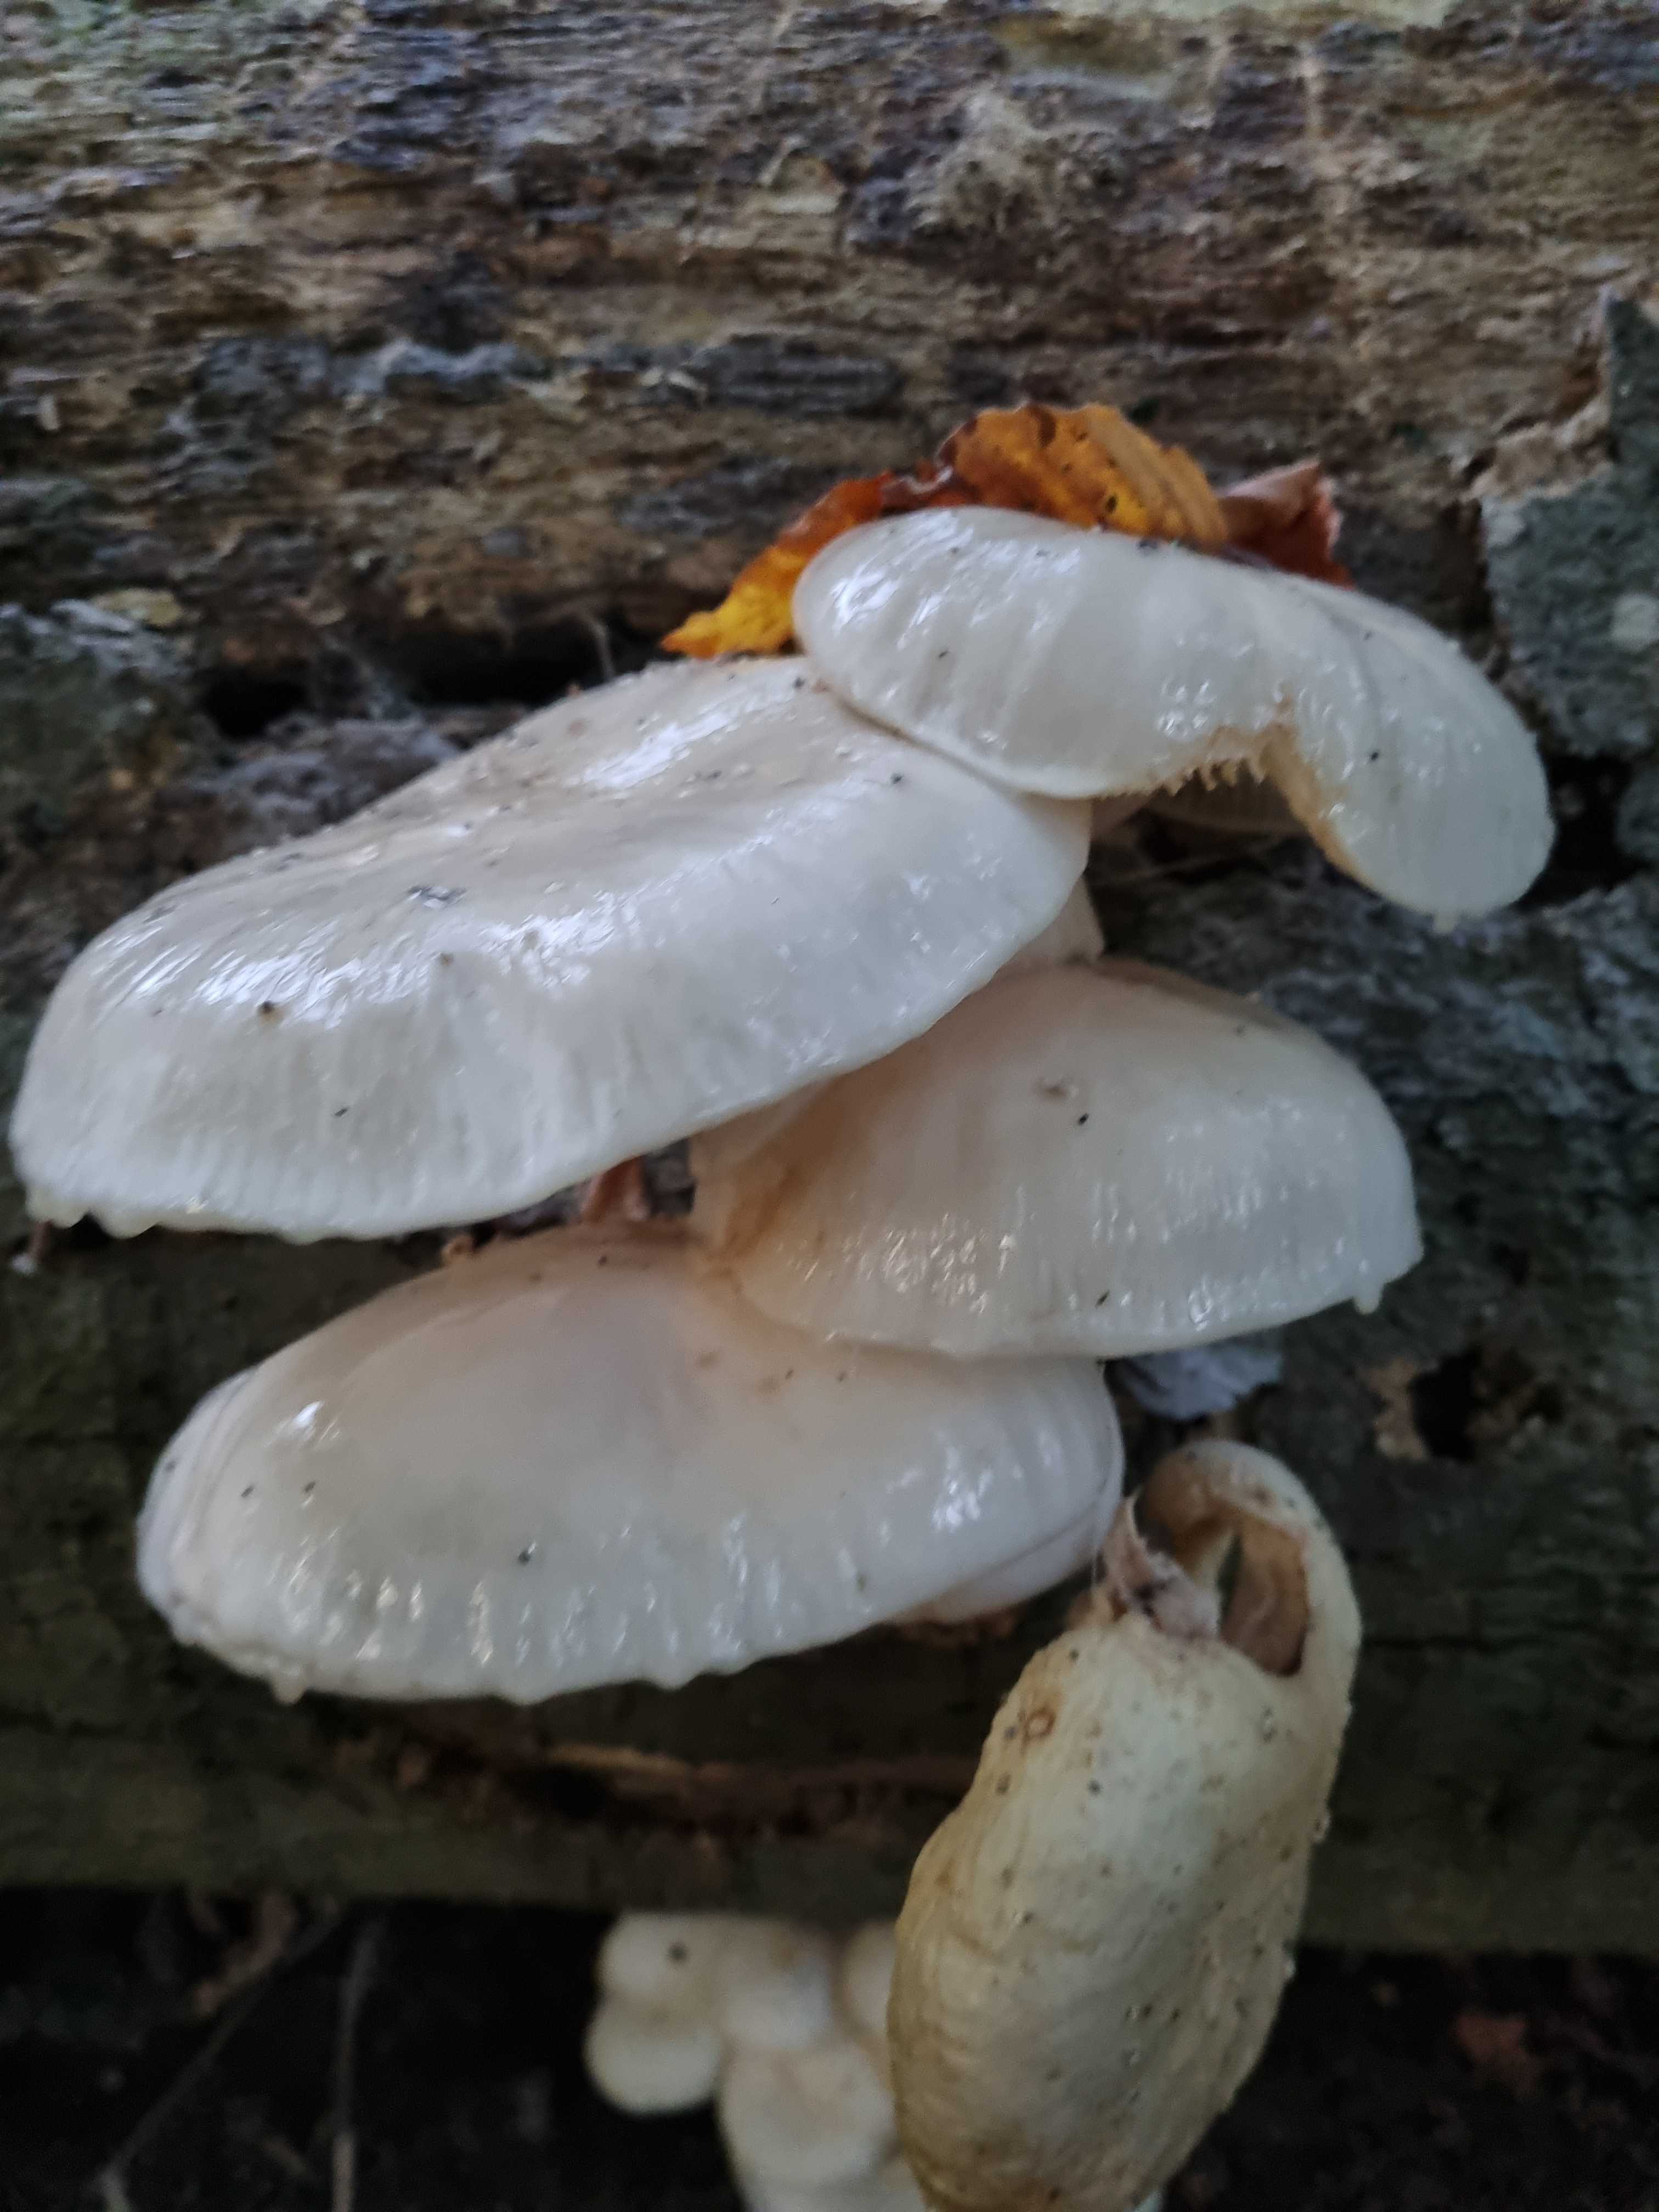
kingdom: Fungi
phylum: Basidiomycota
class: Agaricomycetes
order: Agaricales
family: Physalacriaceae
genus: Mucidula
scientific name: Mucidula mucida
